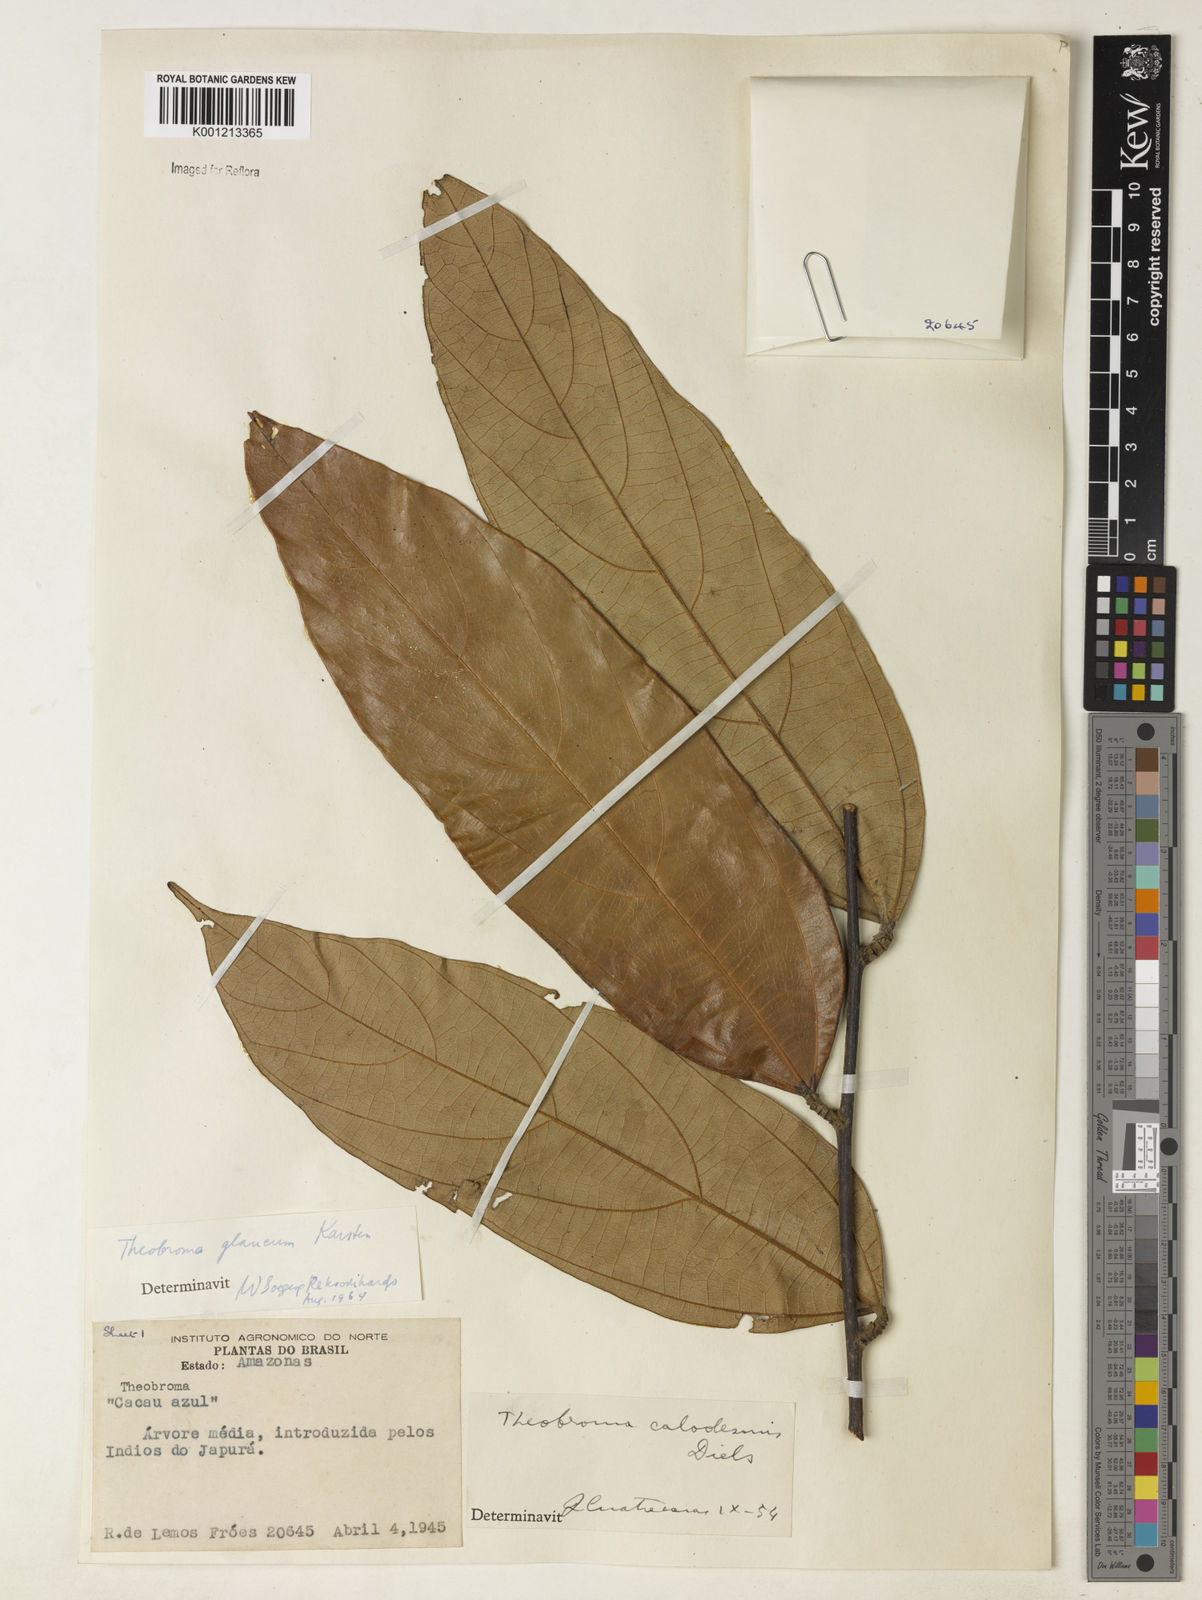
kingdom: Plantae
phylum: Tracheophyta
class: Magnoliopsida
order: Malvales
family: Malvaceae
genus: Theobroma
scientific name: Theobroma glaucum
